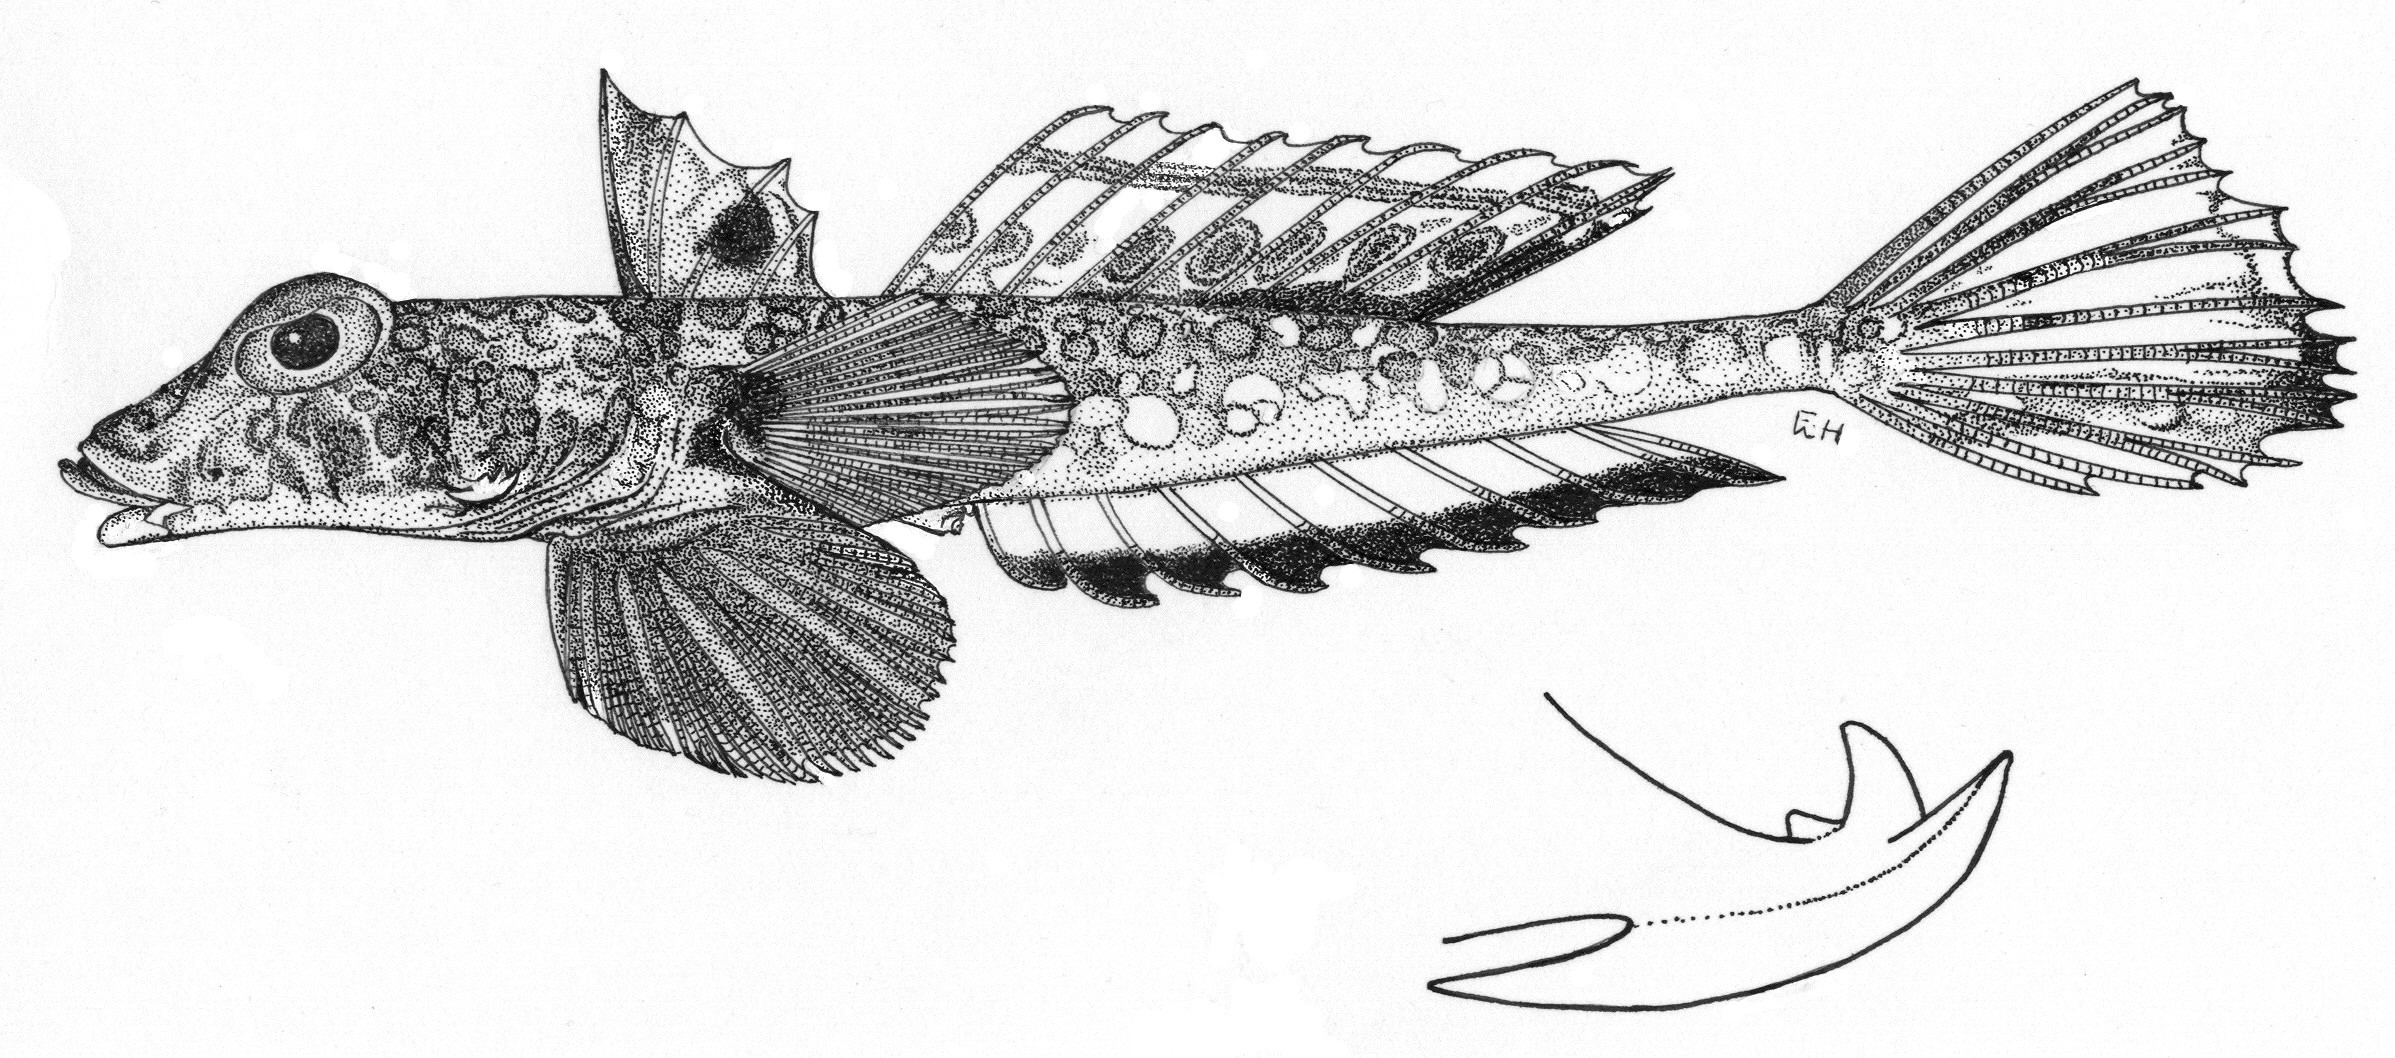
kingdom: Animalia
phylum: Chordata
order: Perciformes
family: Callionymidae
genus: Callionymus
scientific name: Callionymus regani
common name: Regan’s deepwater dragonet
